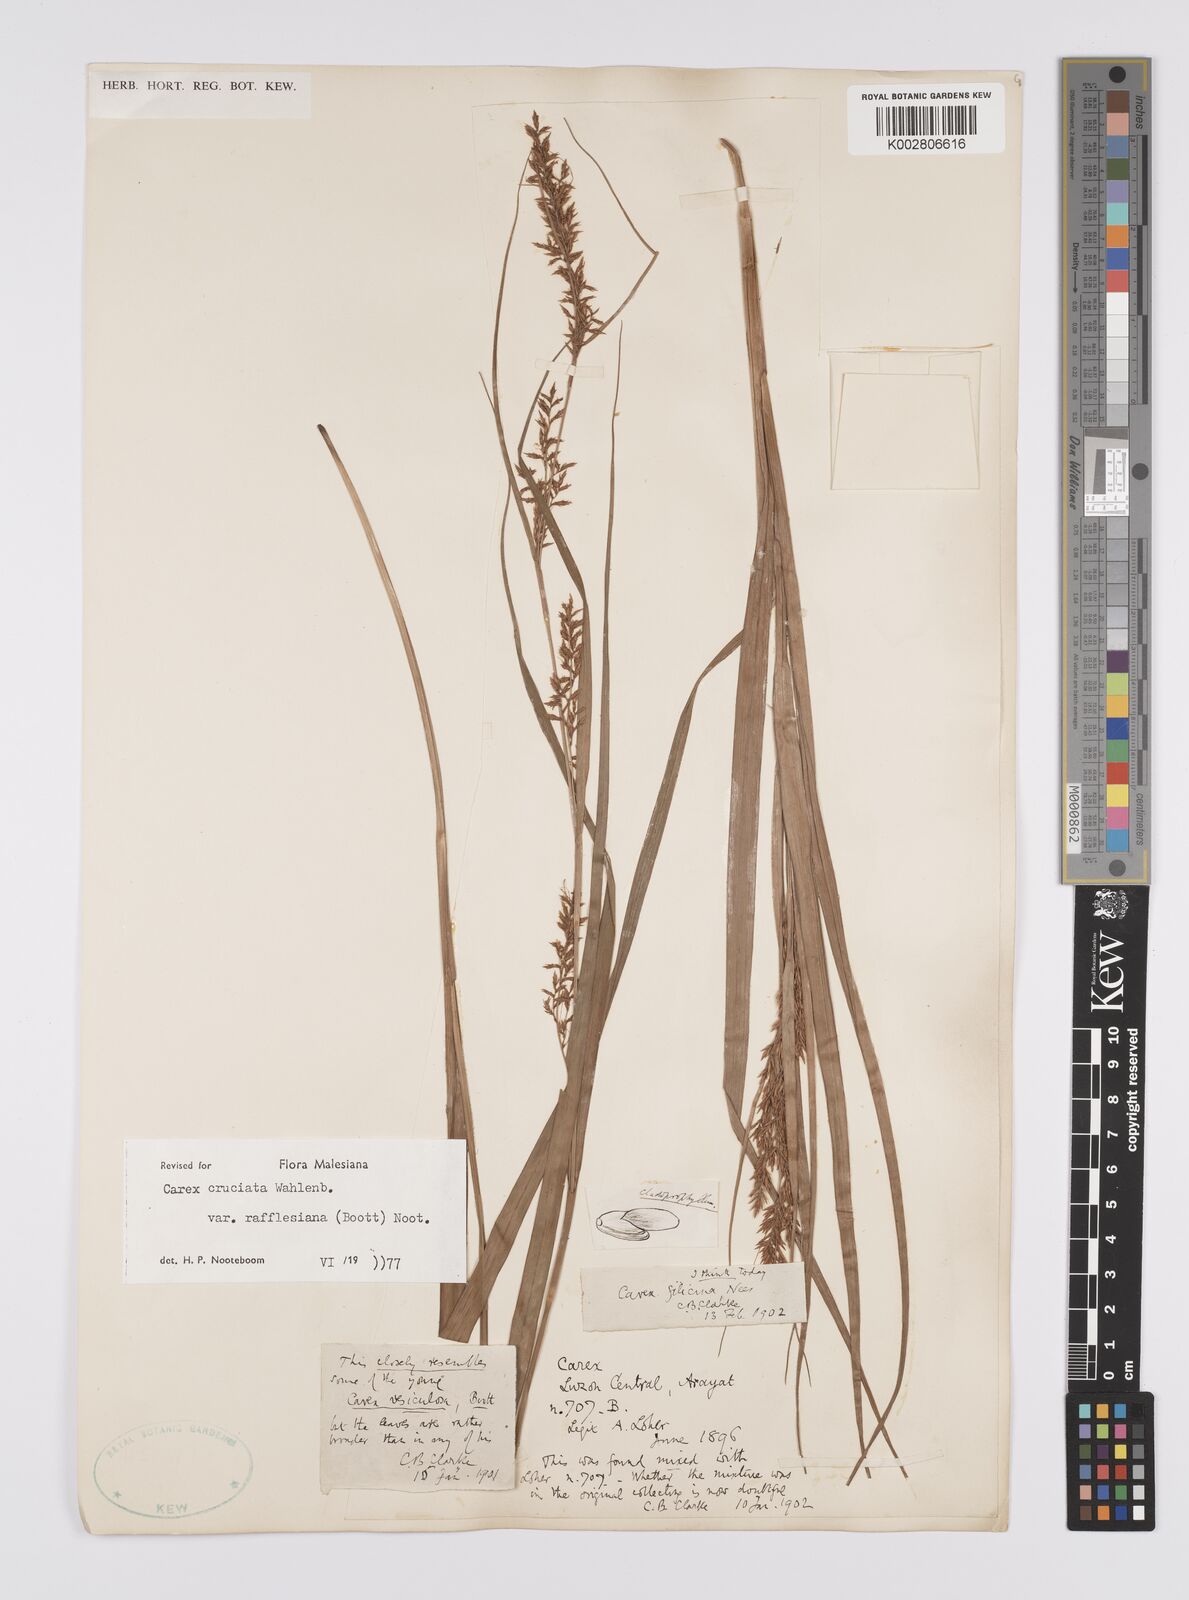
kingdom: Plantae
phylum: Tracheophyta
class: Liliopsida
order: Poales
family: Cyperaceae
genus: Carex
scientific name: Carex rafflesiana
